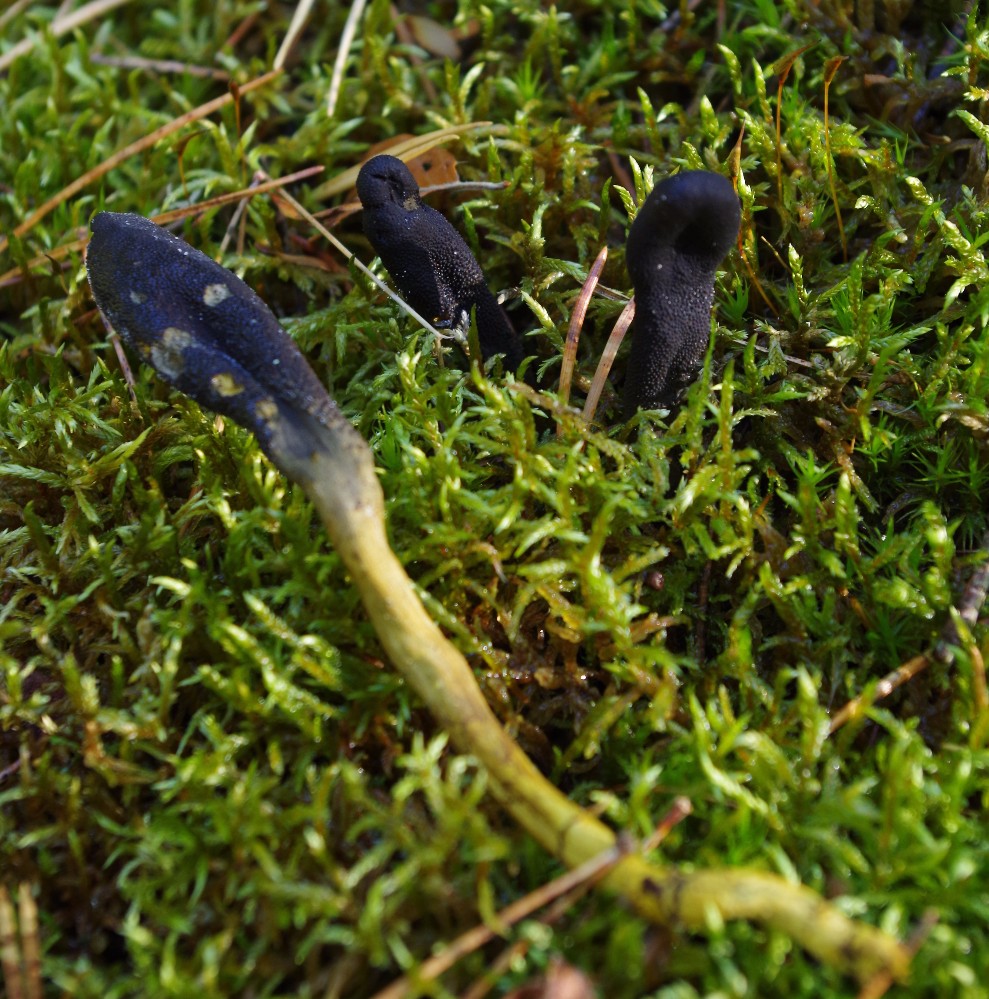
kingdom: Fungi
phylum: Ascomycota
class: Sordariomycetes
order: Hypocreales
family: Ophiocordycipitaceae
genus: Tolypocladium
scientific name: Tolypocladium ophioglossoides
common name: slank snyltekølle
